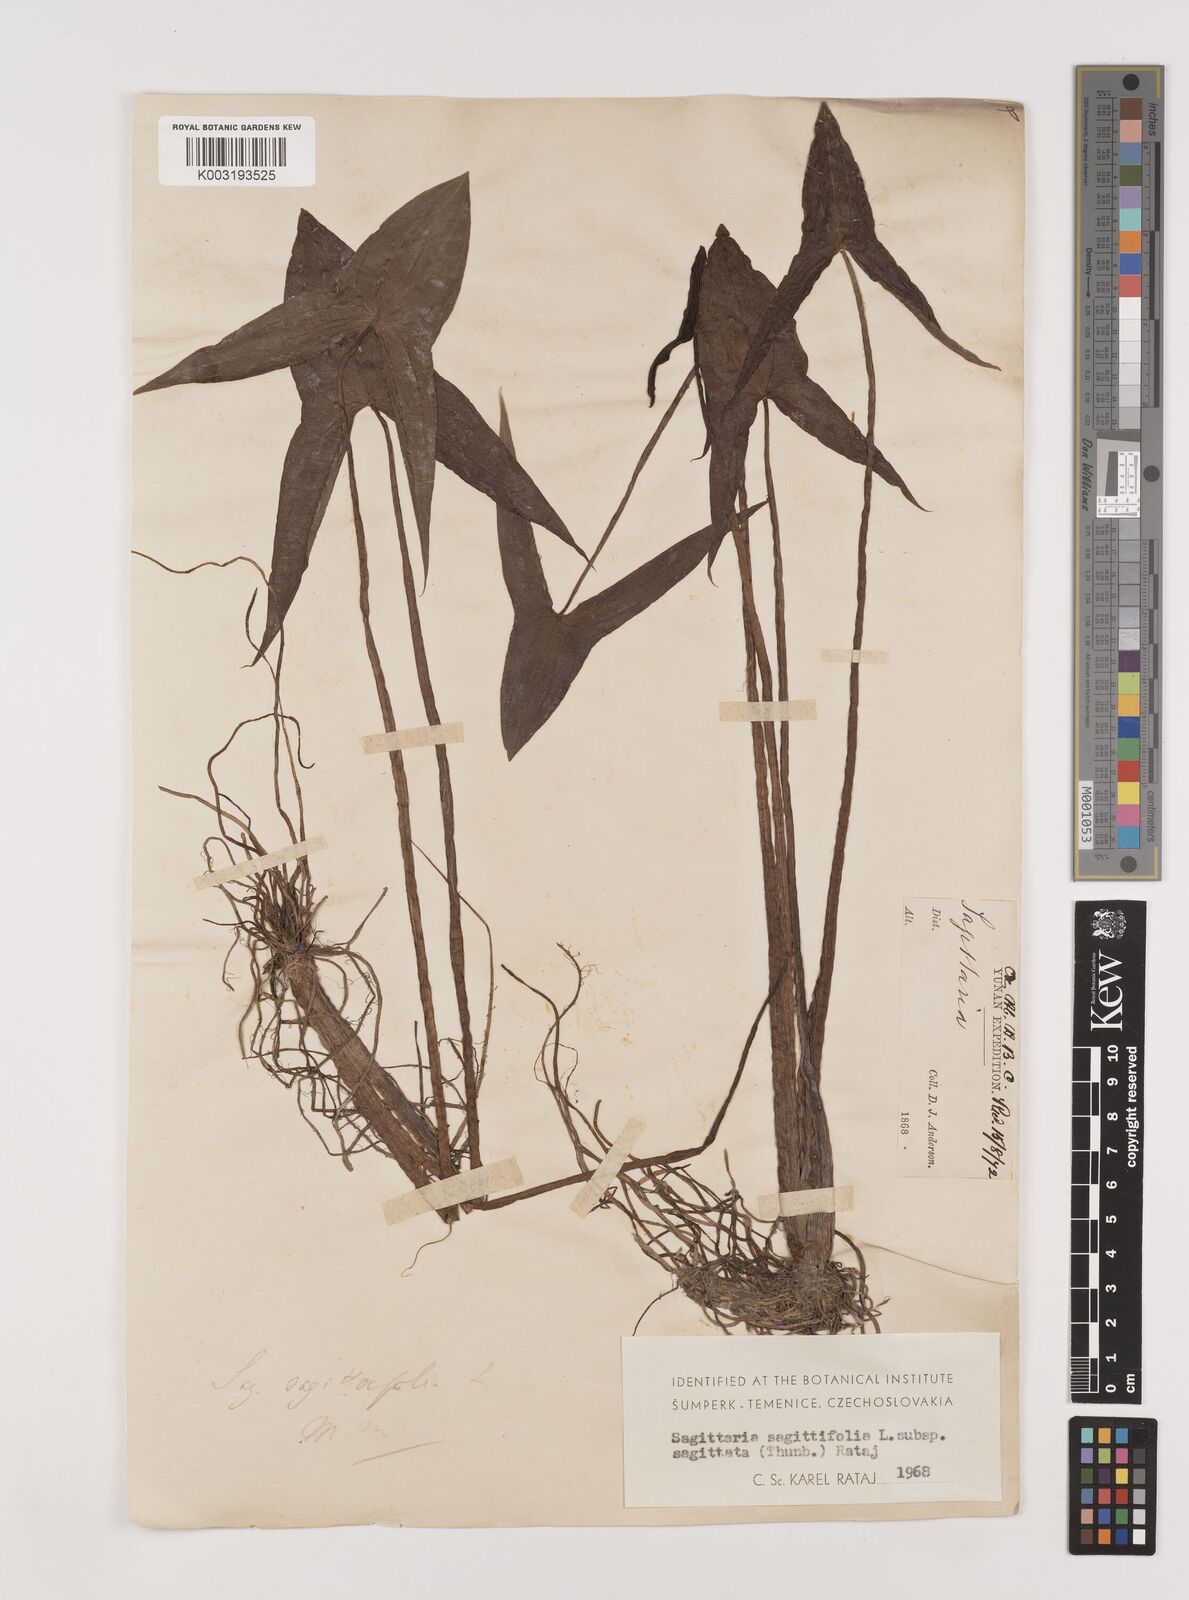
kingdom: Plantae
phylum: Tracheophyta
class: Liliopsida
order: Alismatales
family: Alismataceae
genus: Sagittaria
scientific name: Sagittaria sagittifolia
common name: Arrowhead
